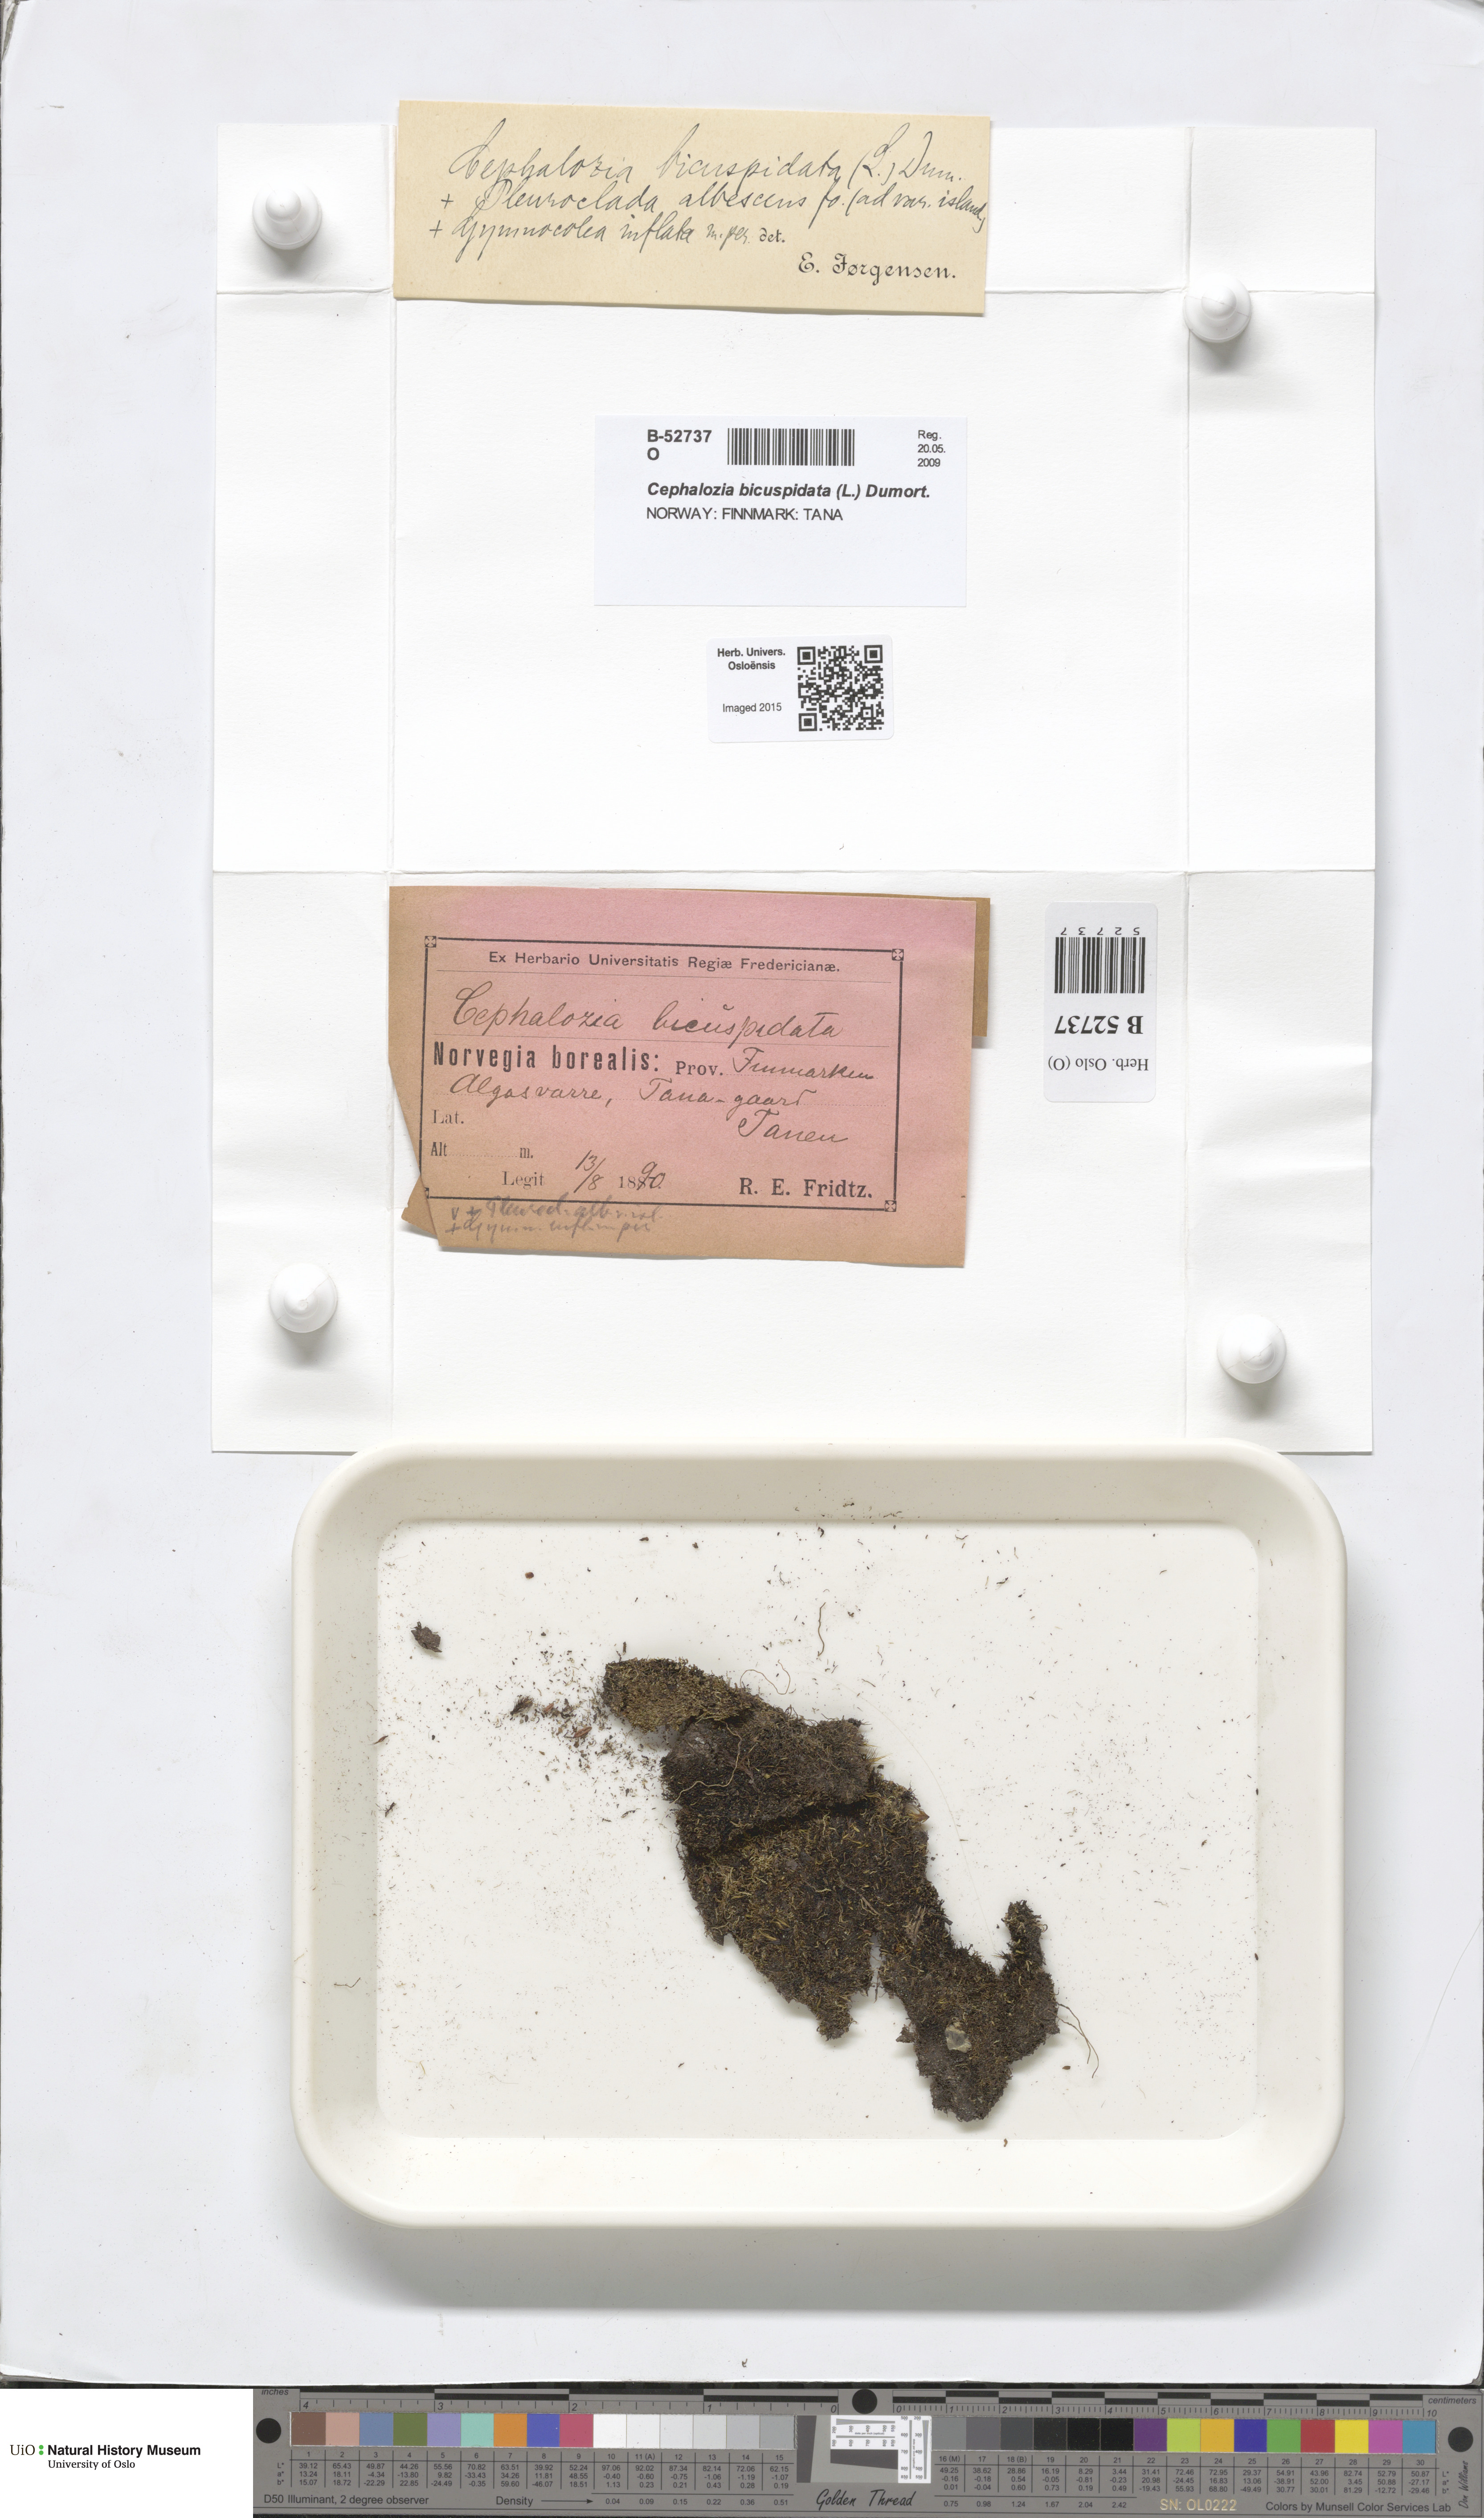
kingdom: Plantae
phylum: Marchantiophyta
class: Jungermanniopsida
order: Jungermanniales
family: Cephaloziaceae
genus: Cephalozia
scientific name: Cephalozia bicuspidata
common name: Two-horned pincerwort
